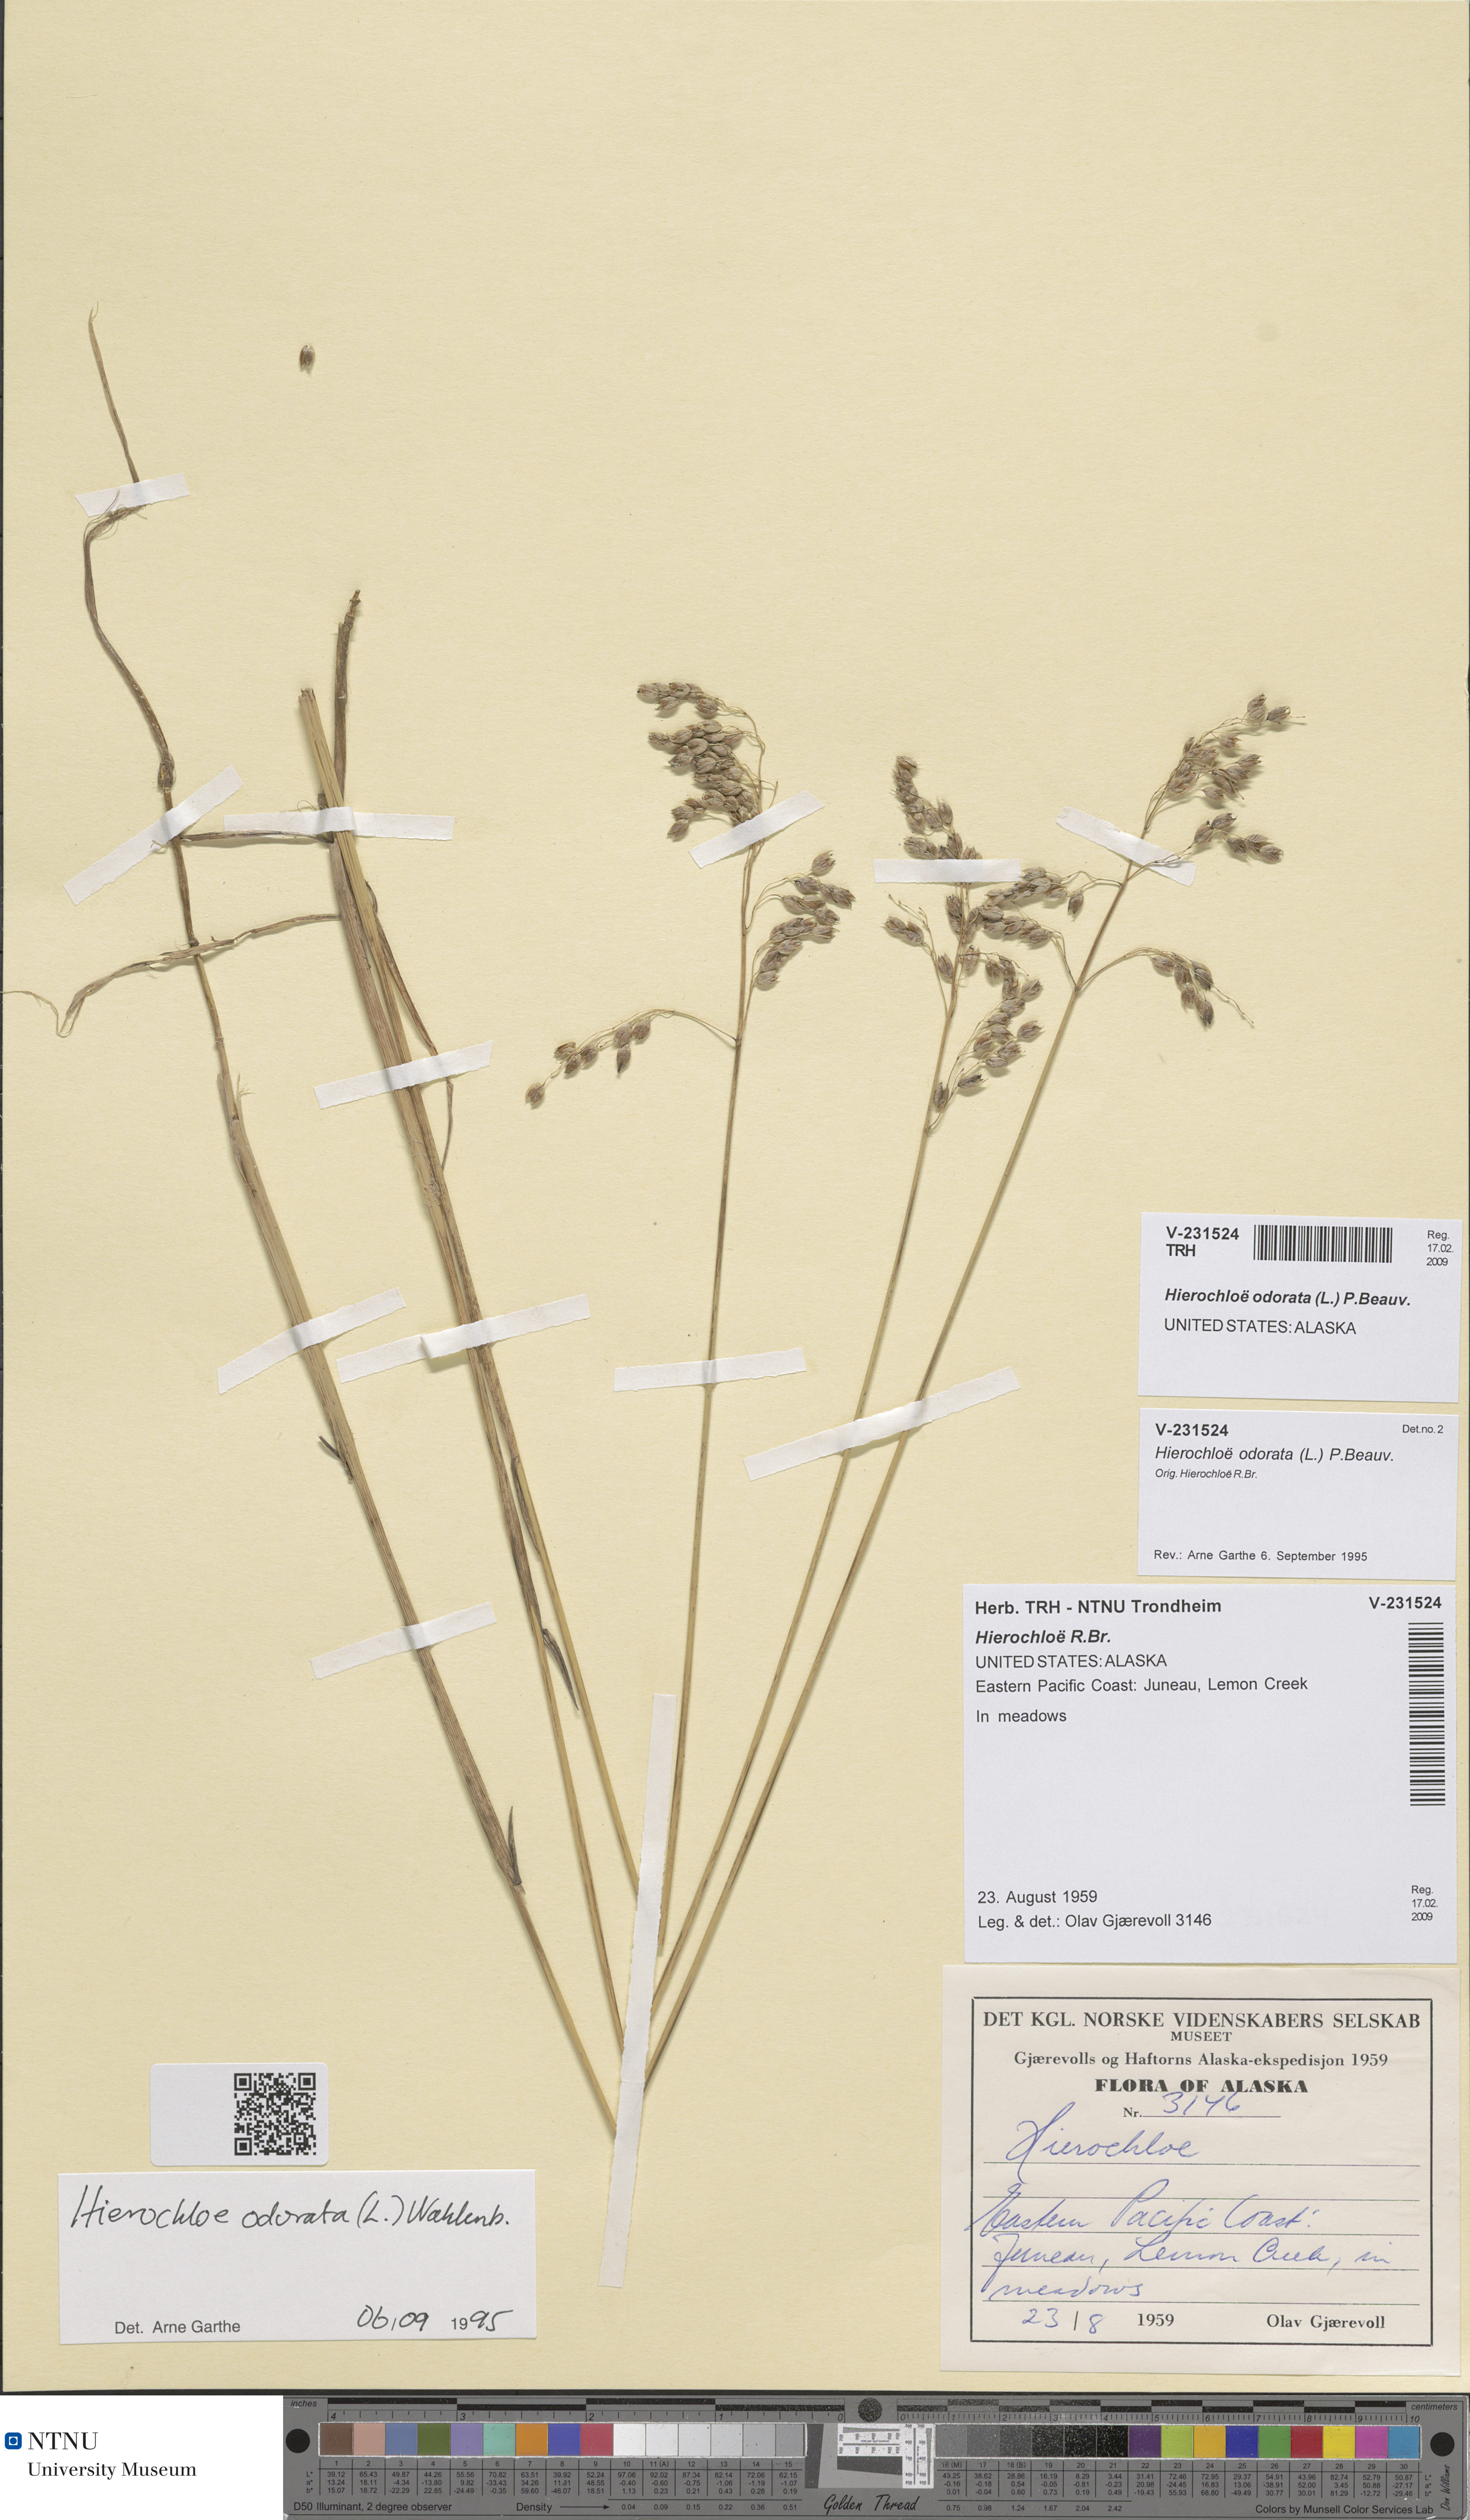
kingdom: Plantae
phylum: Tracheophyta
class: Liliopsida
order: Poales
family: Poaceae
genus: Anthoxanthum
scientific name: Anthoxanthum nitens
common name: Holy grass
